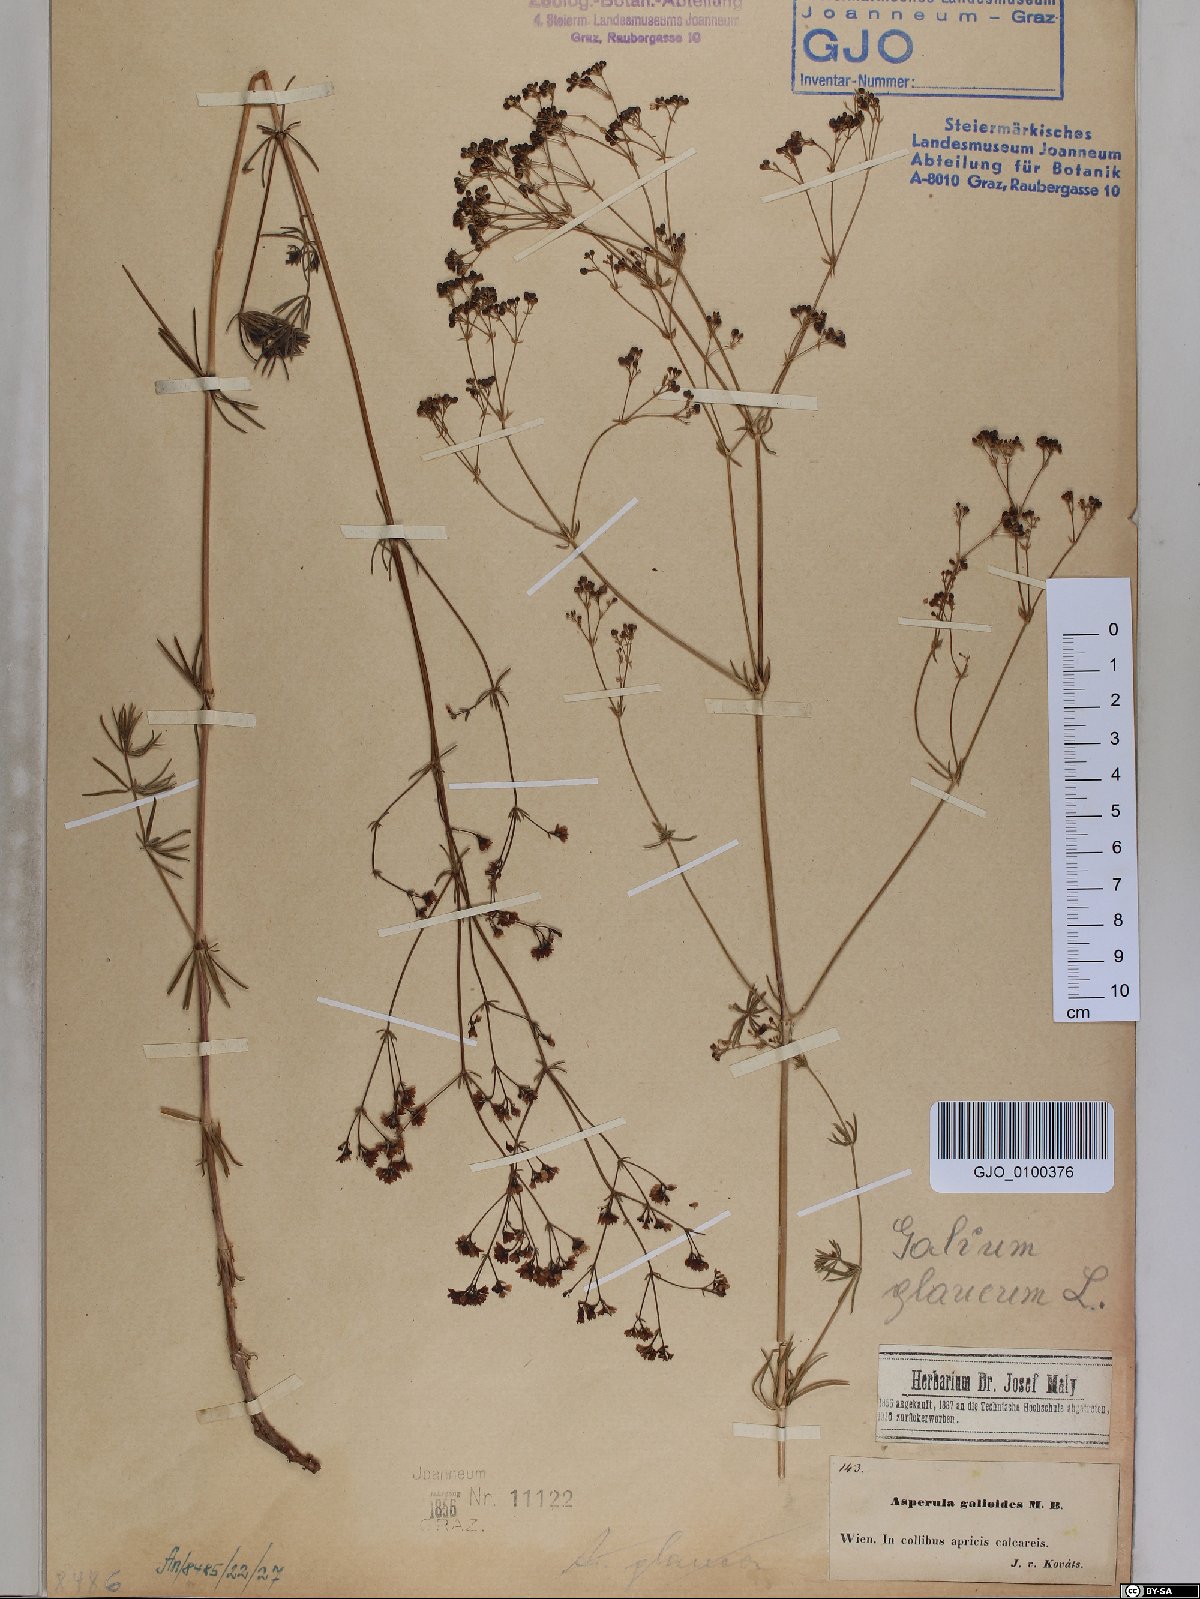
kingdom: Plantae
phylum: Tracheophyta
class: Magnoliopsida
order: Gentianales
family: Rubiaceae
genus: Galium
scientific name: Galium glaucum
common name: Waxy bedstraw
